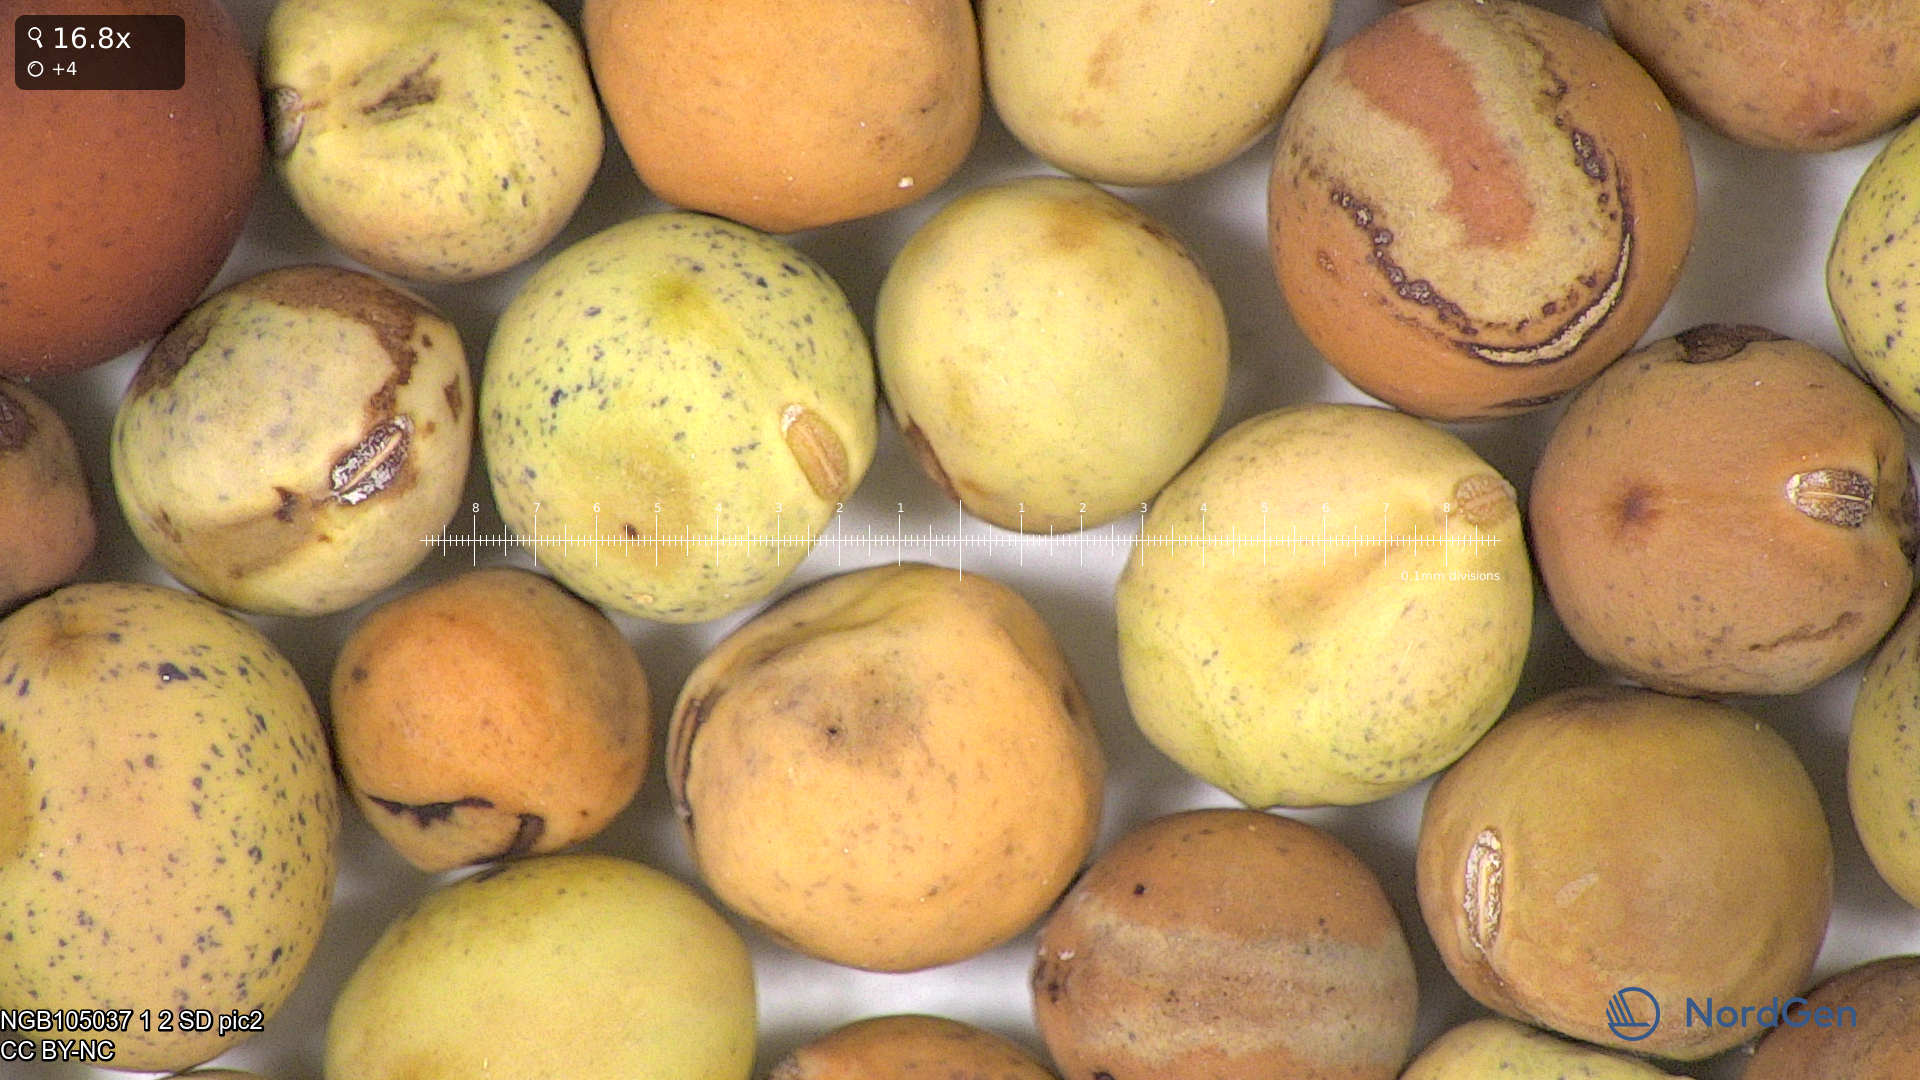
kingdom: Plantae
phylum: Tracheophyta
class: Magnoliopsida
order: Fabales
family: Fabaceae
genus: Lathyrus
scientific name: Lathyrus oleraceus
